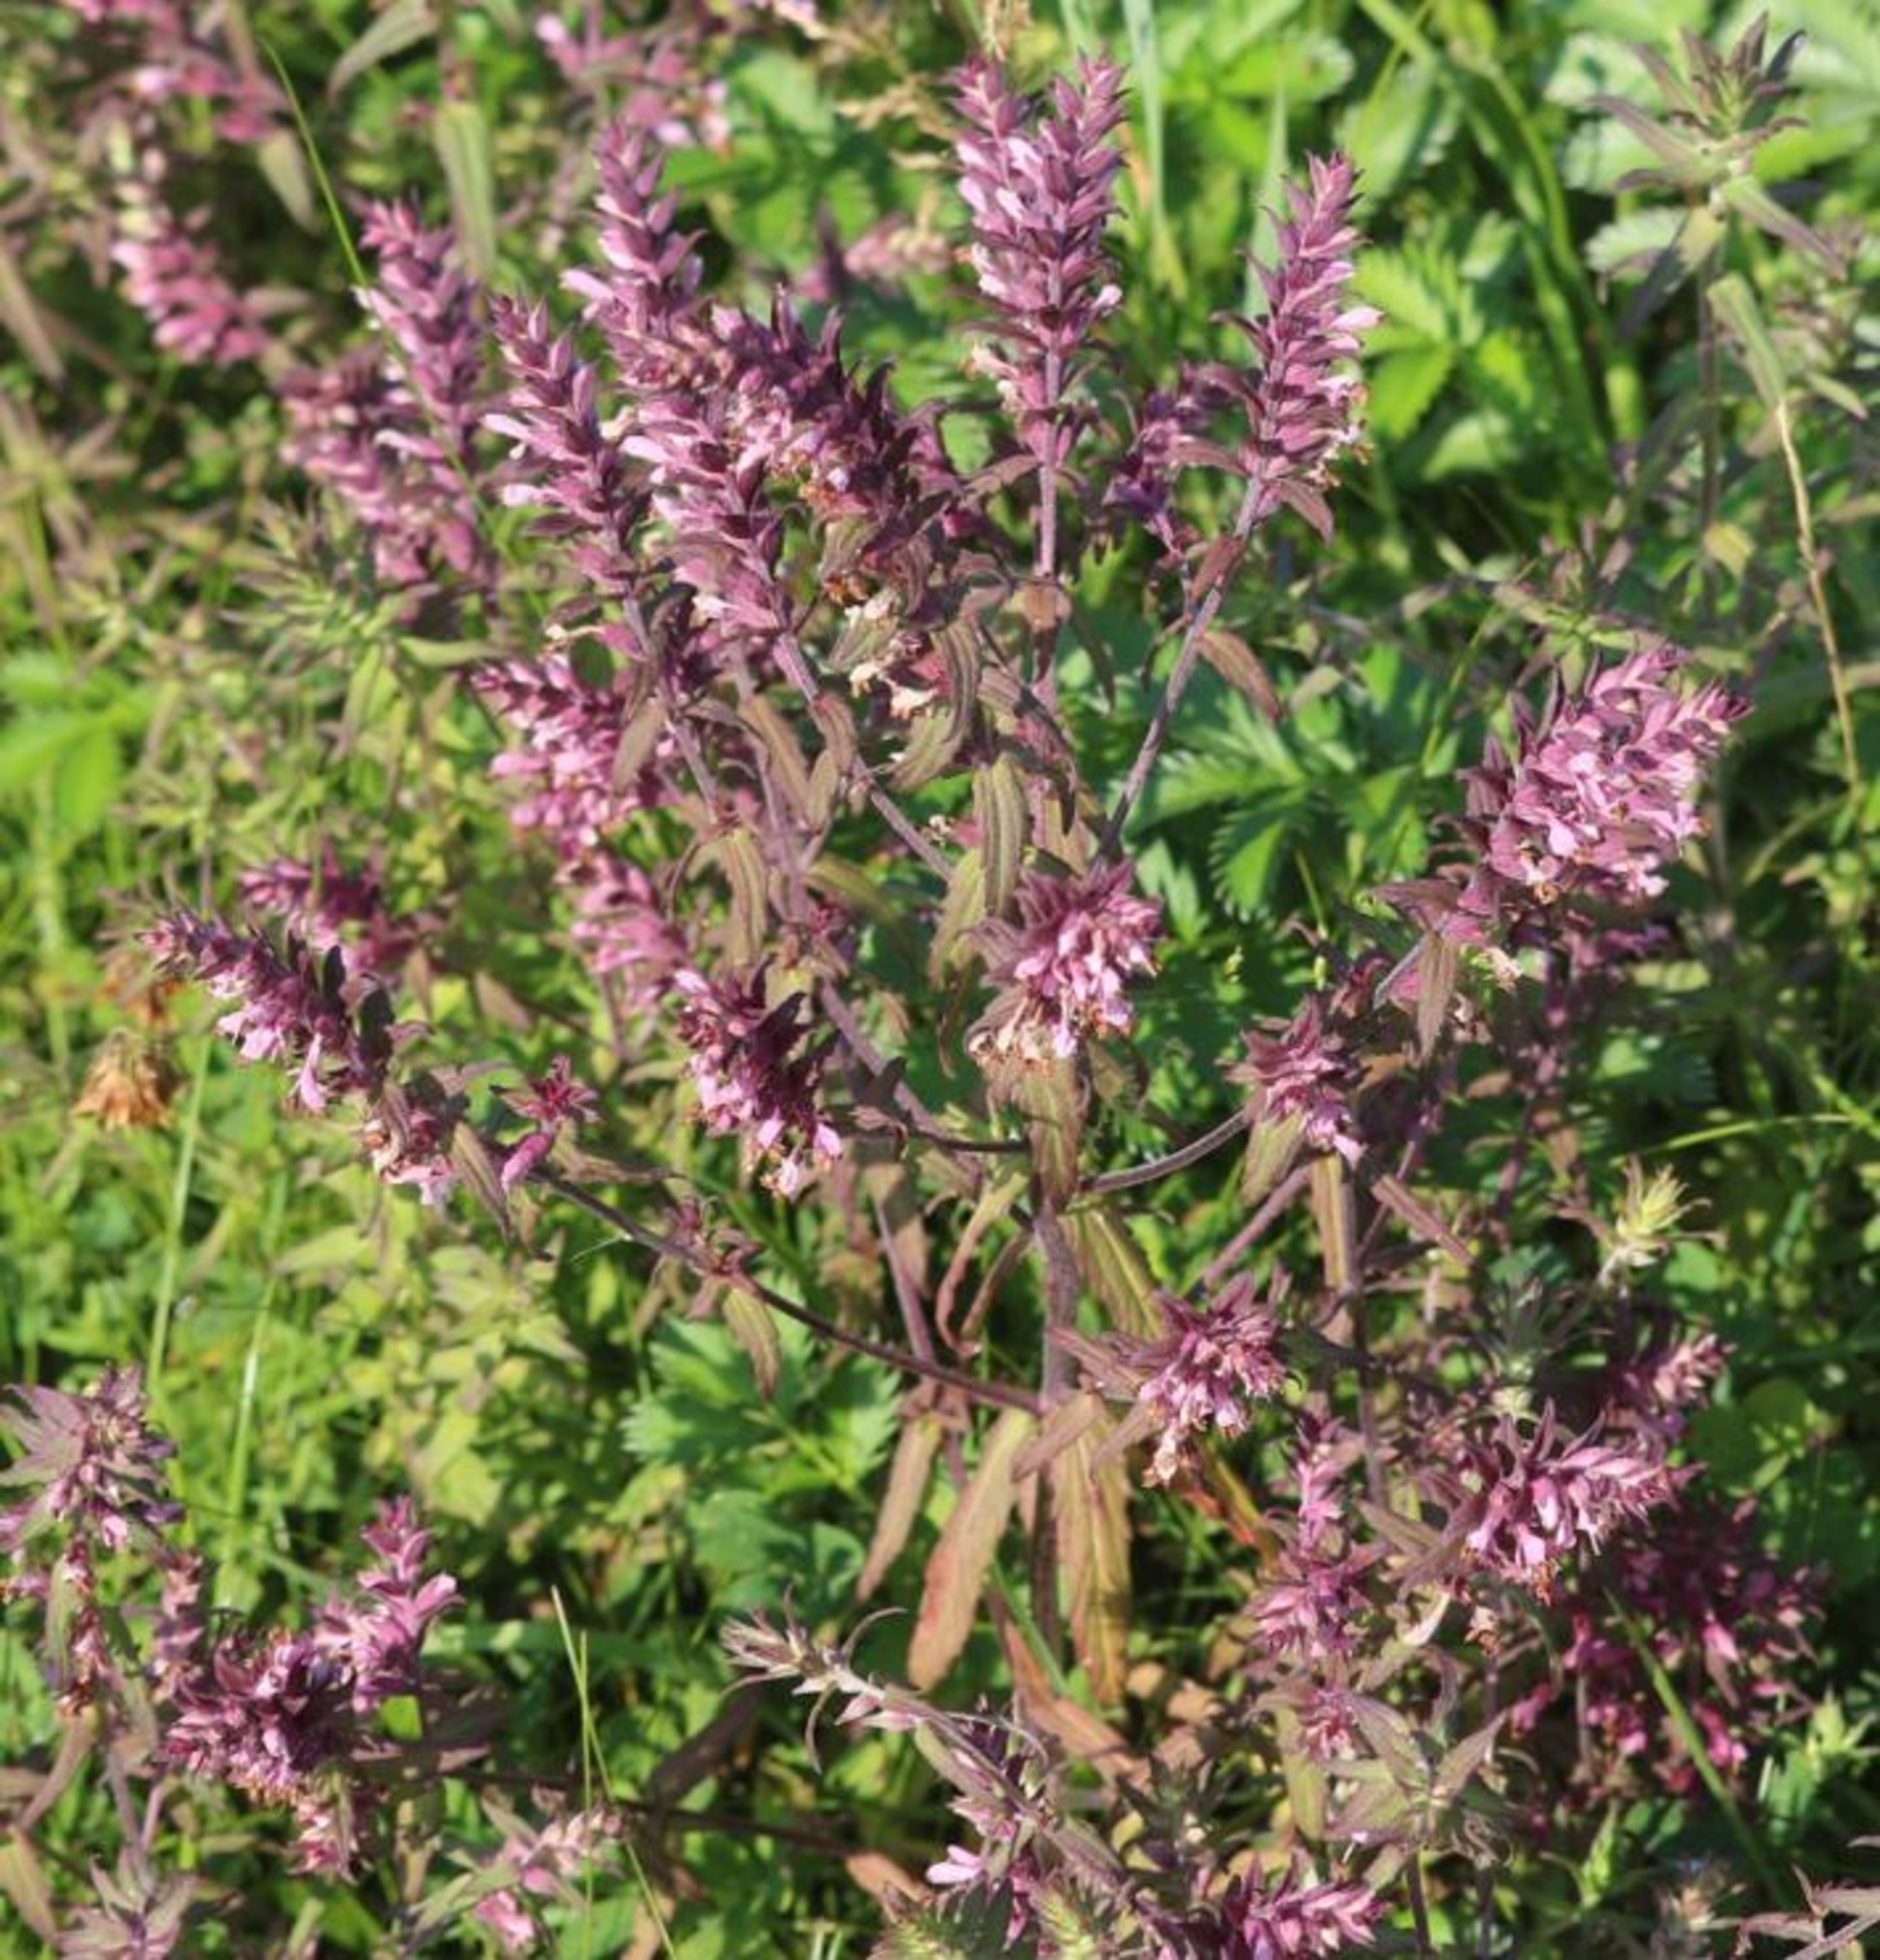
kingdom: Plantae
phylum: Tracheophyta
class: Magnoliopsida
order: Lamiales
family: Orobanchaceae
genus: Odontites
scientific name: Odontites vulgaris
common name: Høst-rødtop
